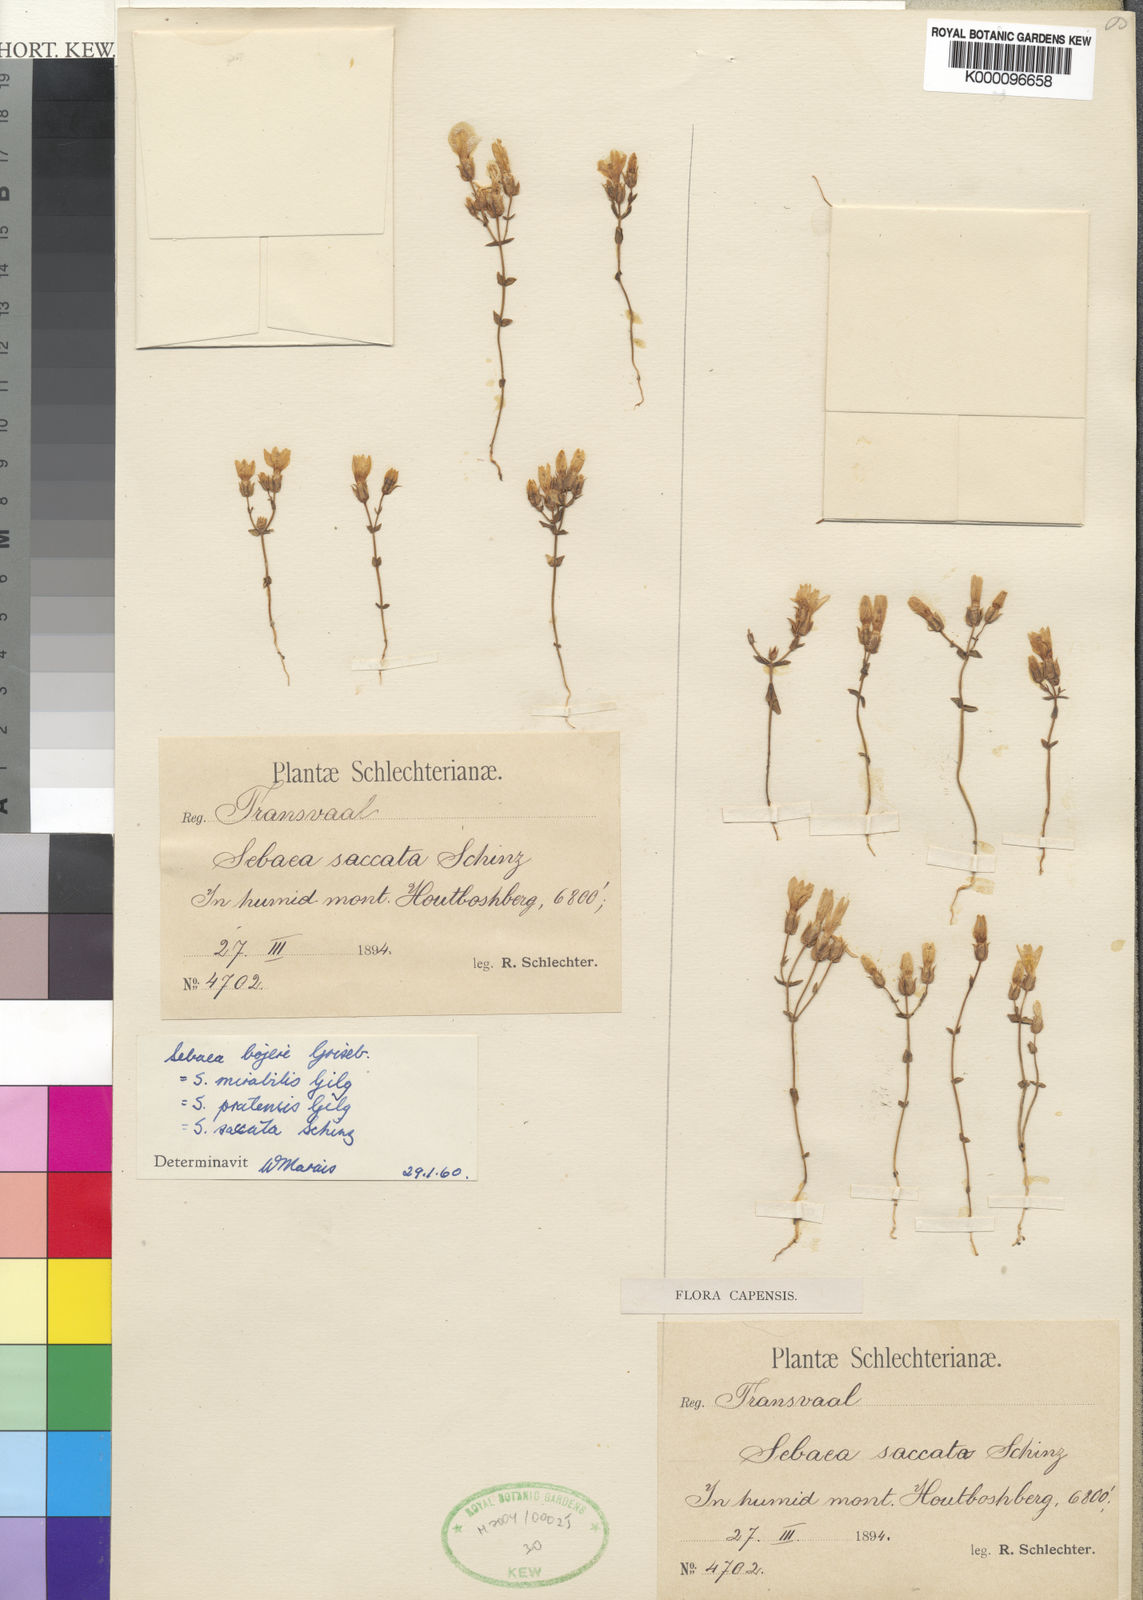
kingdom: Plantae
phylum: Tracheophyta
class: Magnoliopsida
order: Gentianales
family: Gentianaceae
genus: Sebaea
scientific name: Sebaea bojeri
